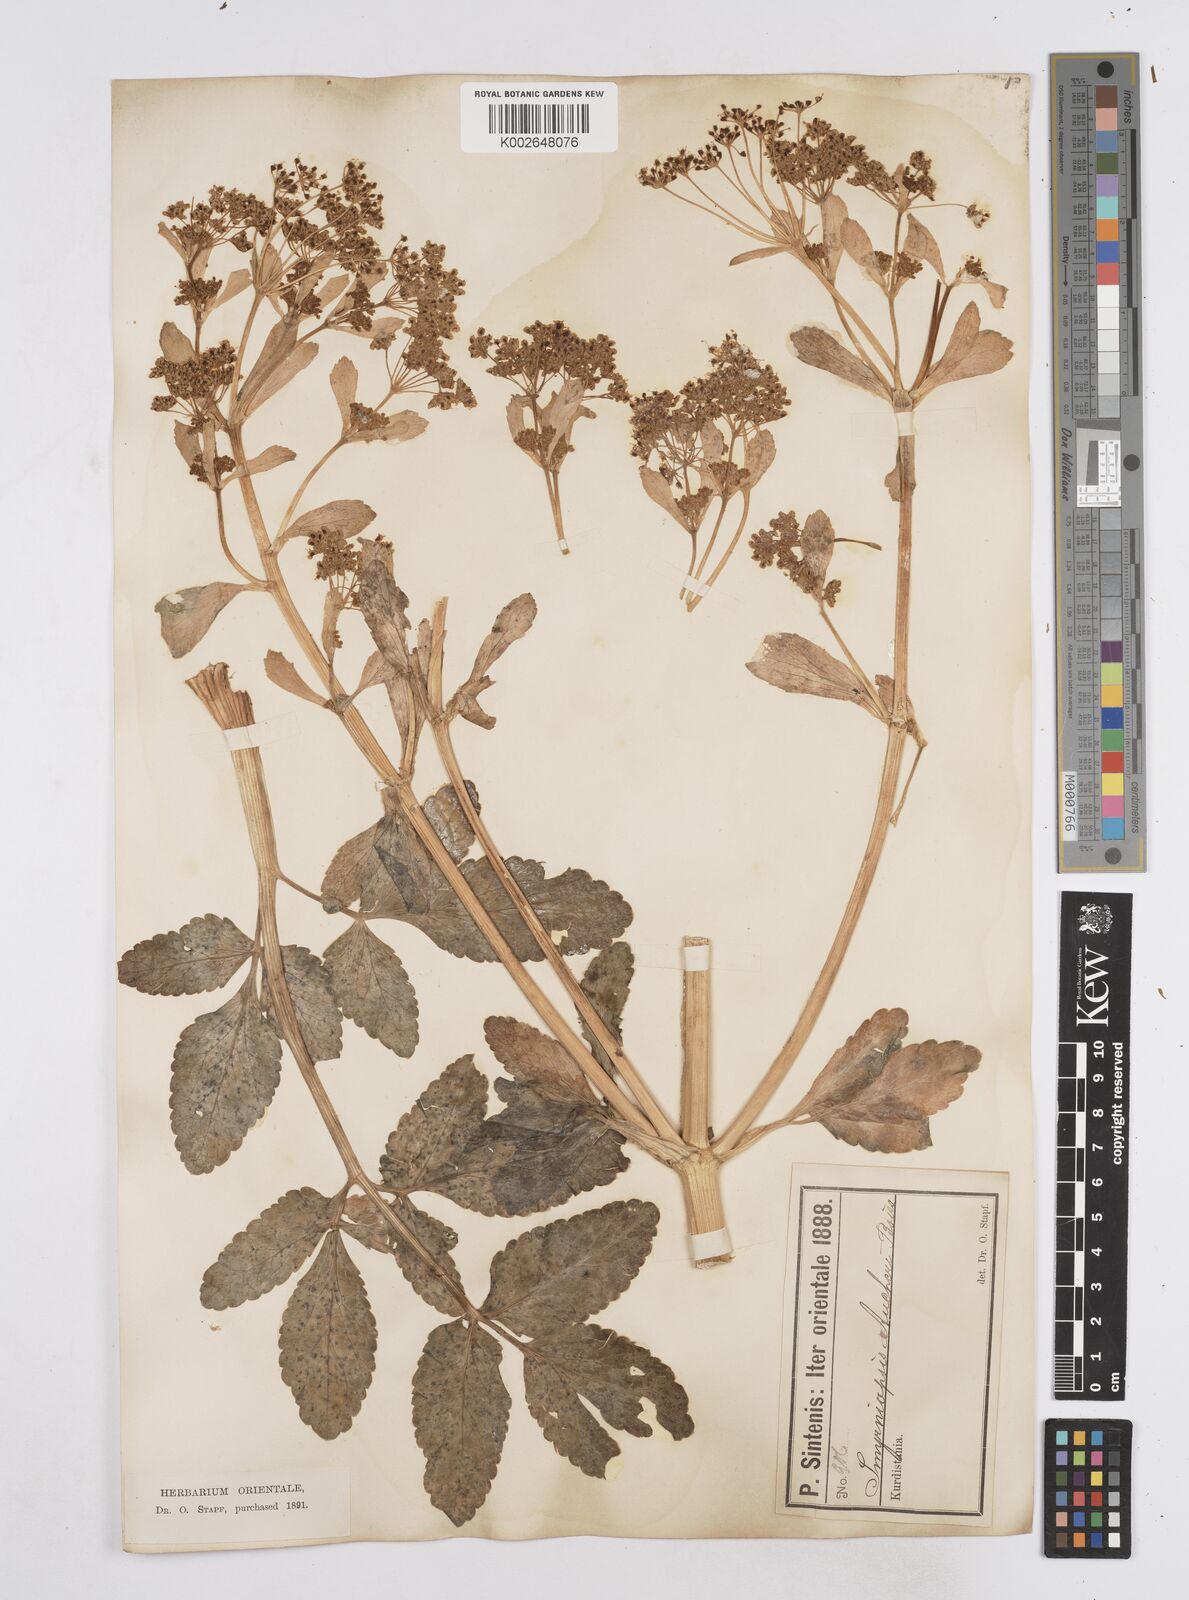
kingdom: Plantae
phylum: Tracheophyta
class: Magnoliopsida
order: Apiales
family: Apiaceae
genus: Smyrniopsis
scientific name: Smyrniopsis aucheri
